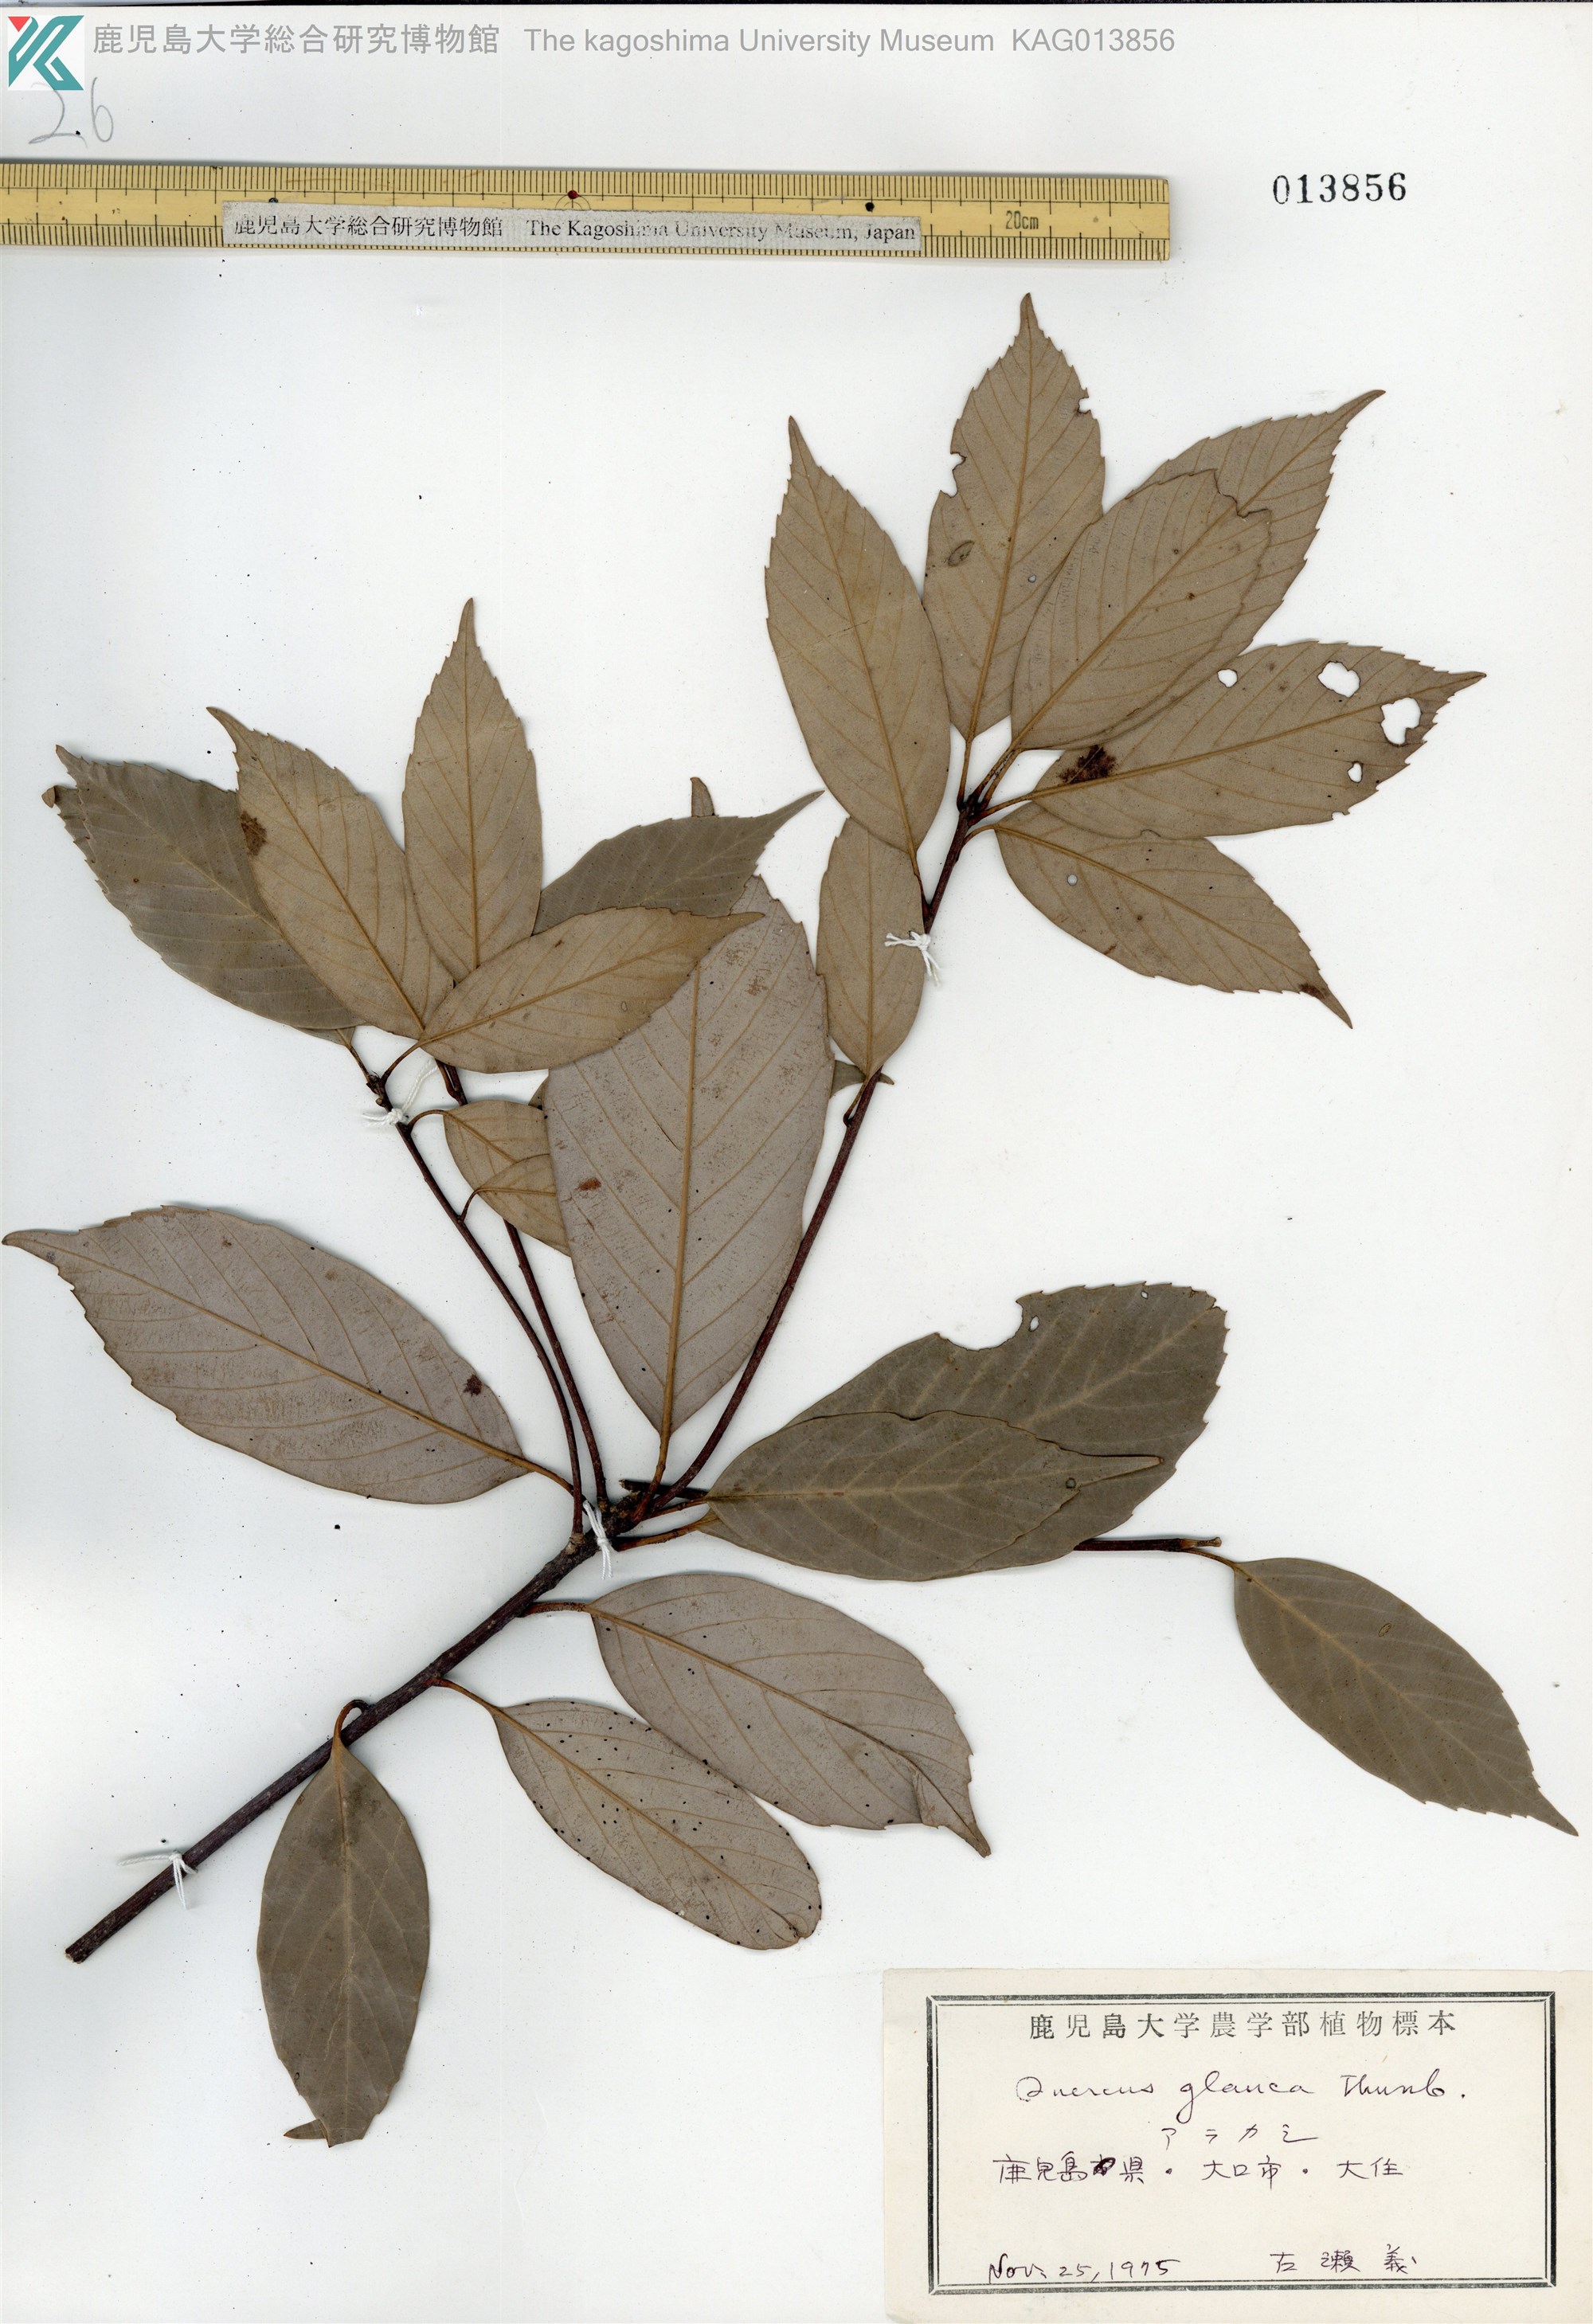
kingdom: Plantae
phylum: Tracheophyta
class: Magnoliopsida
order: Fagales
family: Fagaceae
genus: Quercus
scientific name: Quercus glauca
